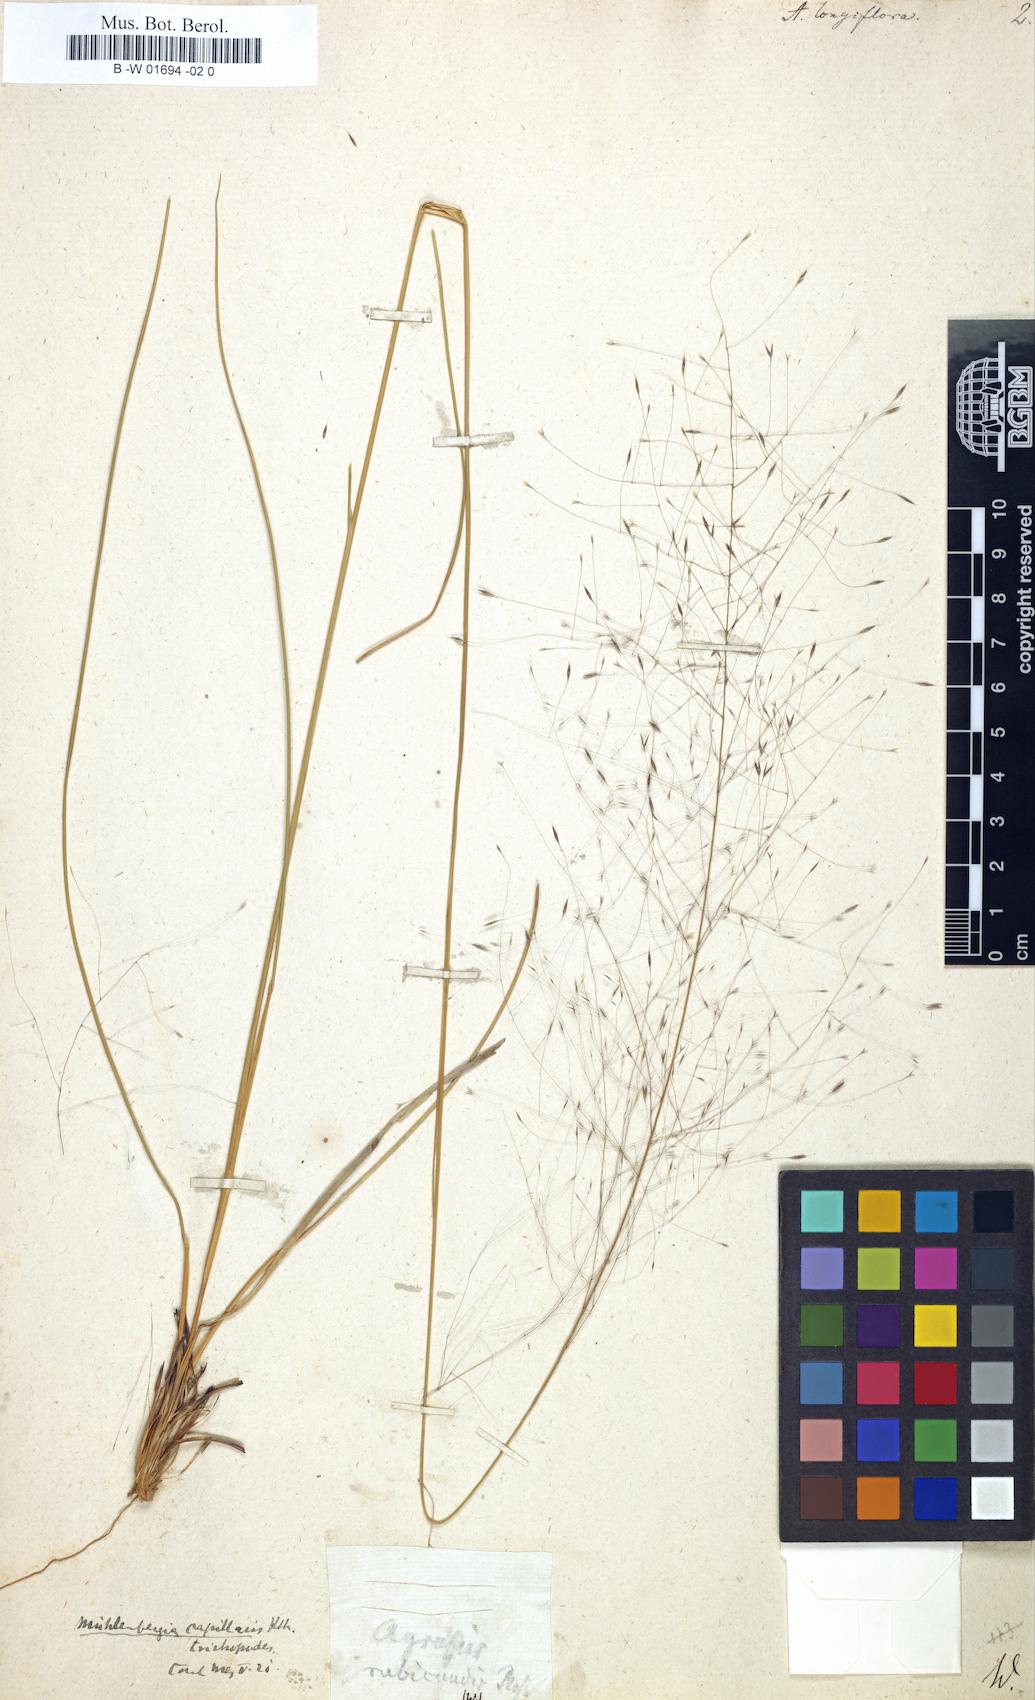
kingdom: Plantae
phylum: Tracheophyta
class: Liliopsida
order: Poales
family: Poaceae
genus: Muhlenbergia
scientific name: Muhlenbergia expansa
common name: Savannah hairgrass
